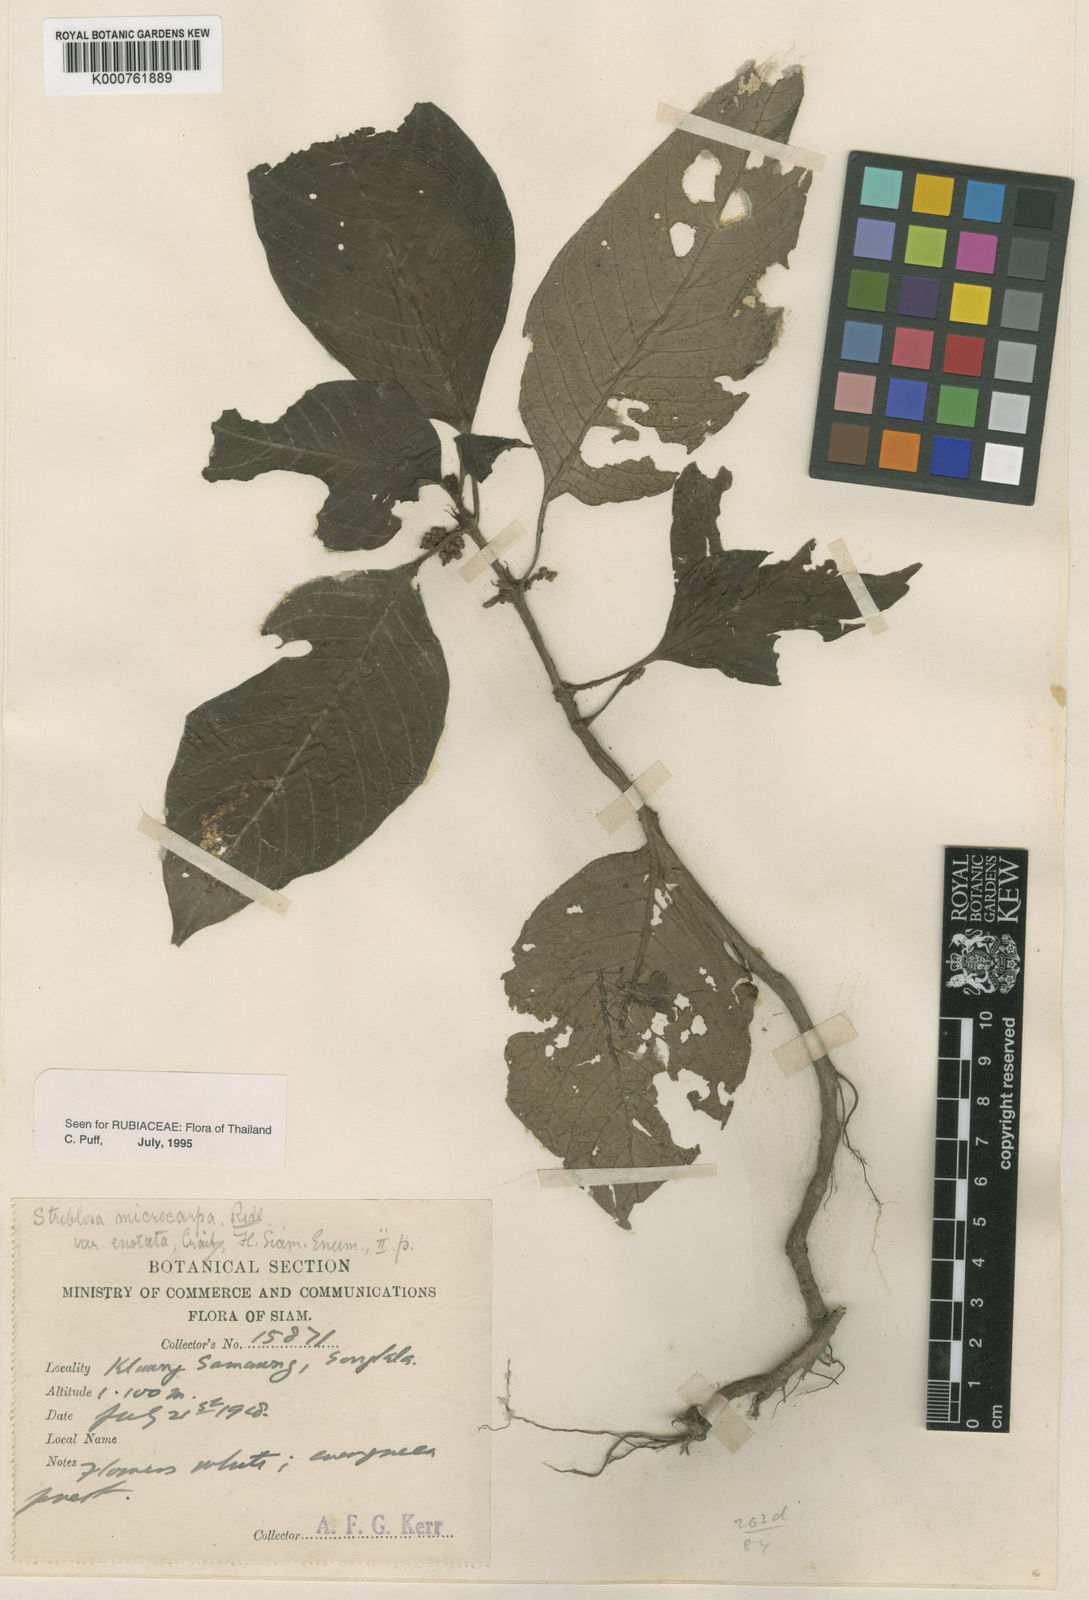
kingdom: Plantae
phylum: Tracheophyta
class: Magnoliopsida
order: Gentianales
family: Rubiaceae
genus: Streblosa
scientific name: Streblosa microcarpa
